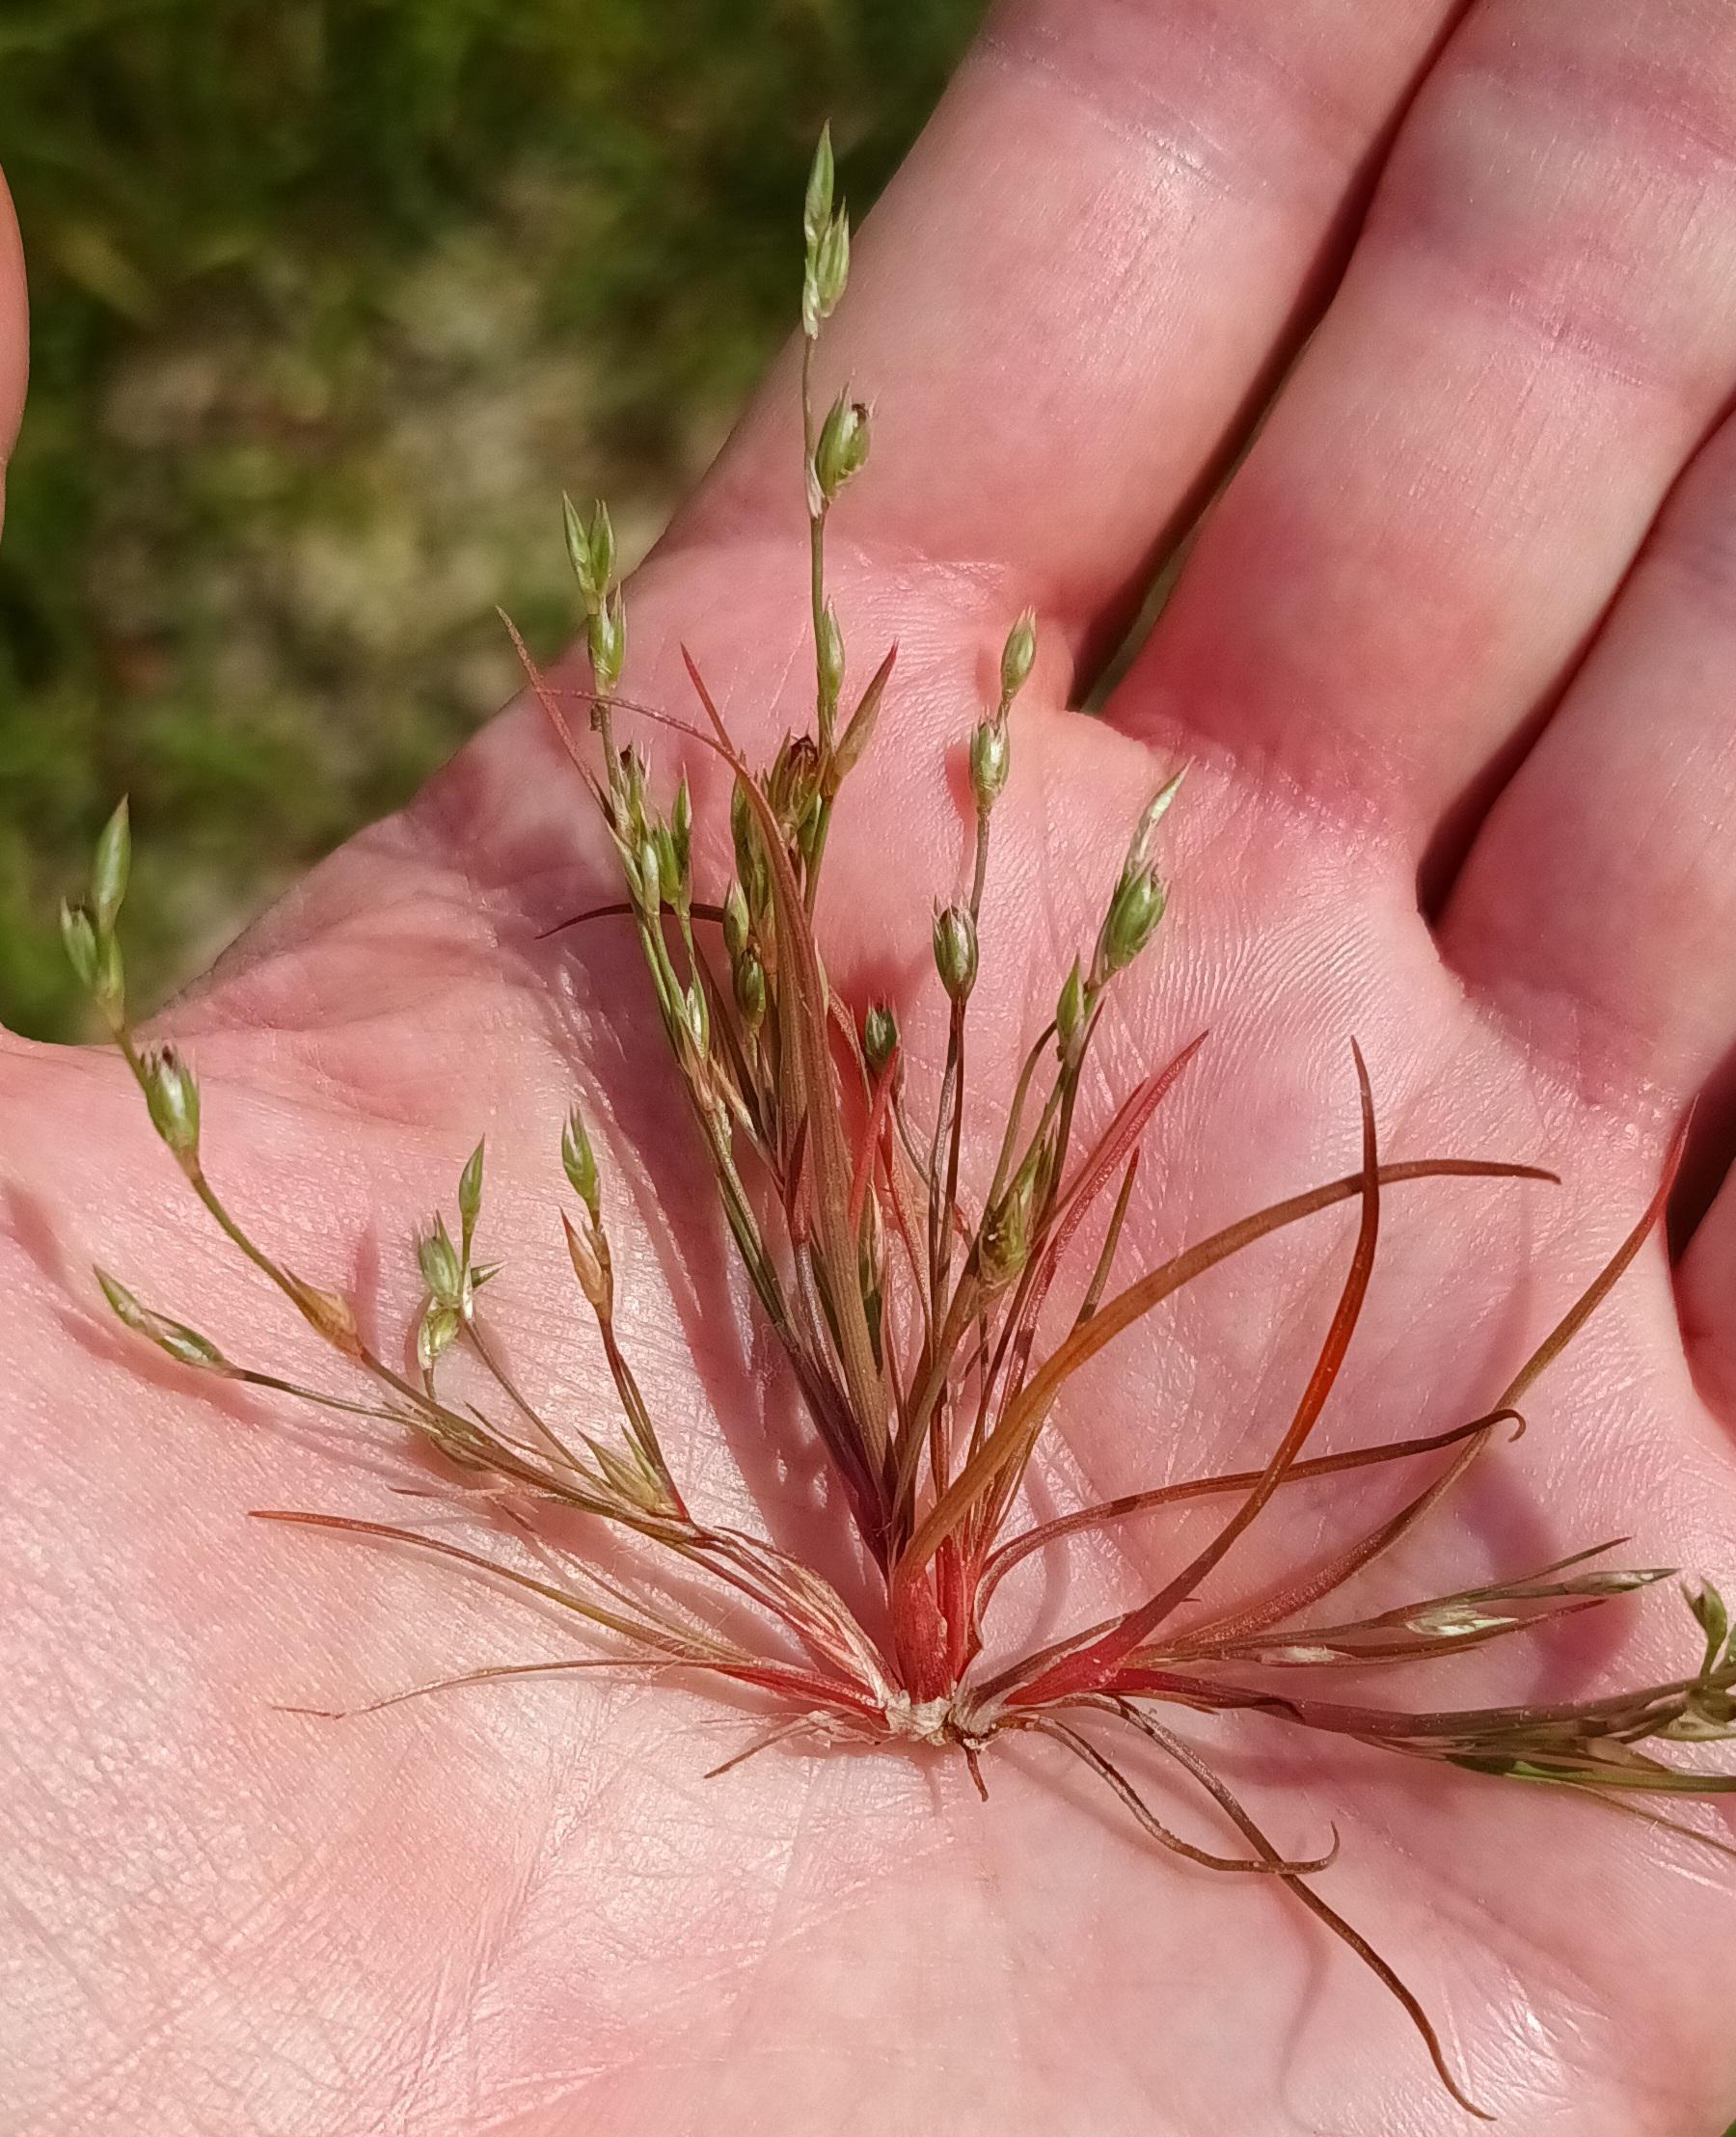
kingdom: Plantae
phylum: Tracheophyta
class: Liliopsida
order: Poales
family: Juncaceae
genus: Juncus
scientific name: Juncus bufonius
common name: Tudse-siv
